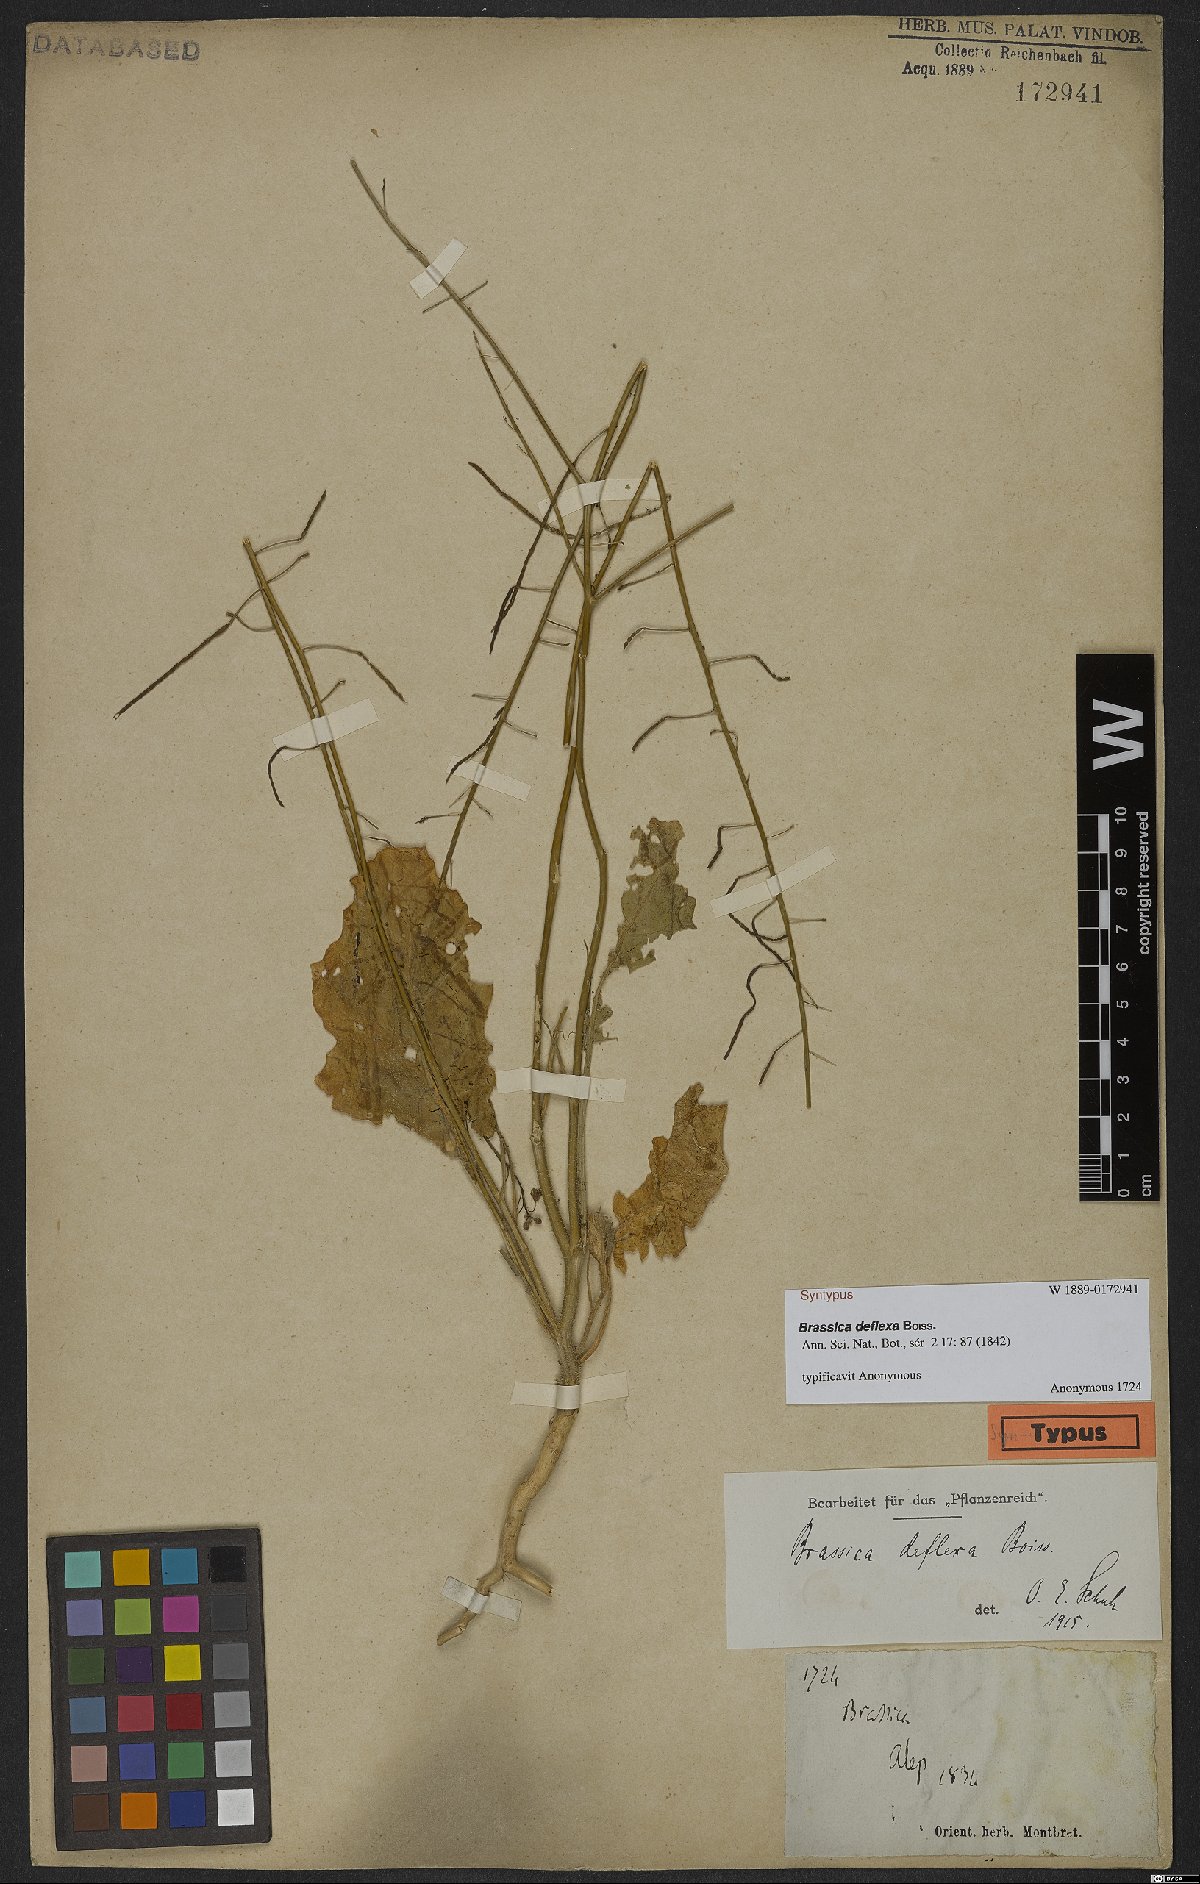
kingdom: Plantae
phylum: Tracheophyta
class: Magnoliopsida
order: Brassicales
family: Brassicaceae
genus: Brassica
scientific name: Brassica deflexa
